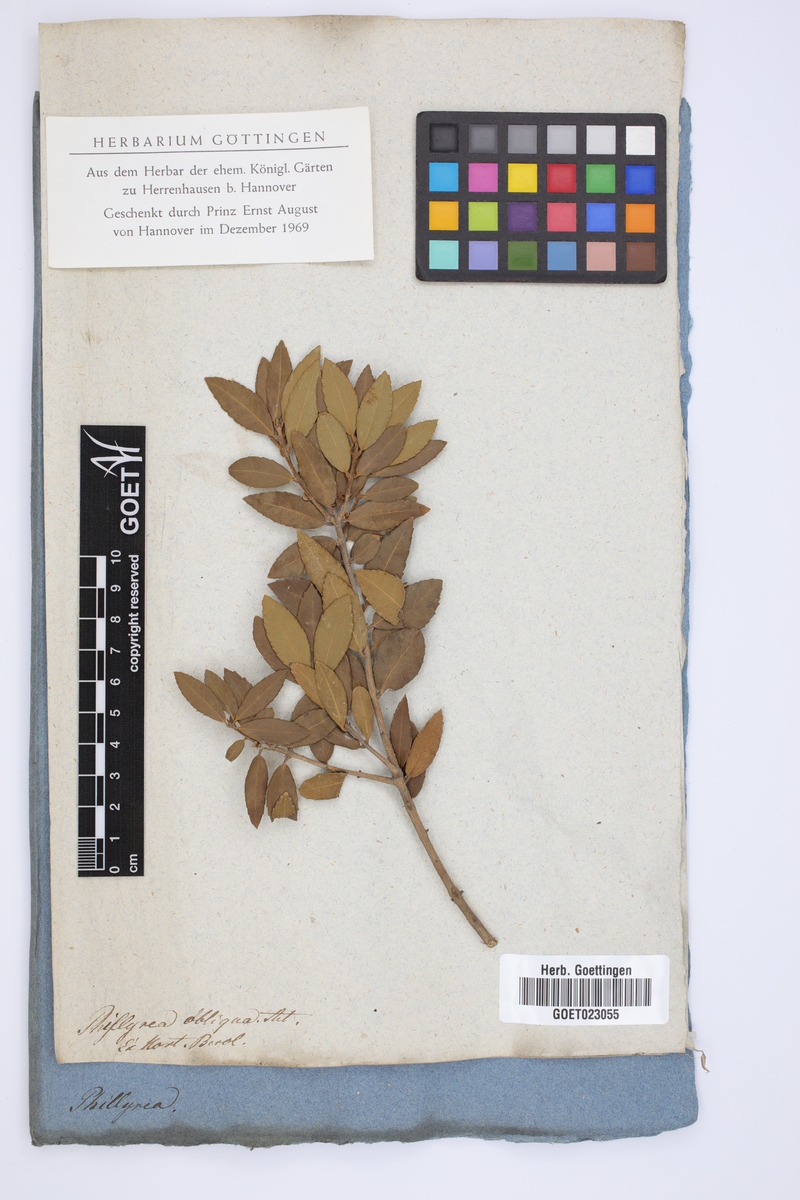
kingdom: Plantae
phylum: Tracheophyta
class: Magnoliopsida
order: Lamiales
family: Oleaceae
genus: Phillyrea
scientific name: Phillyrea latifolia
